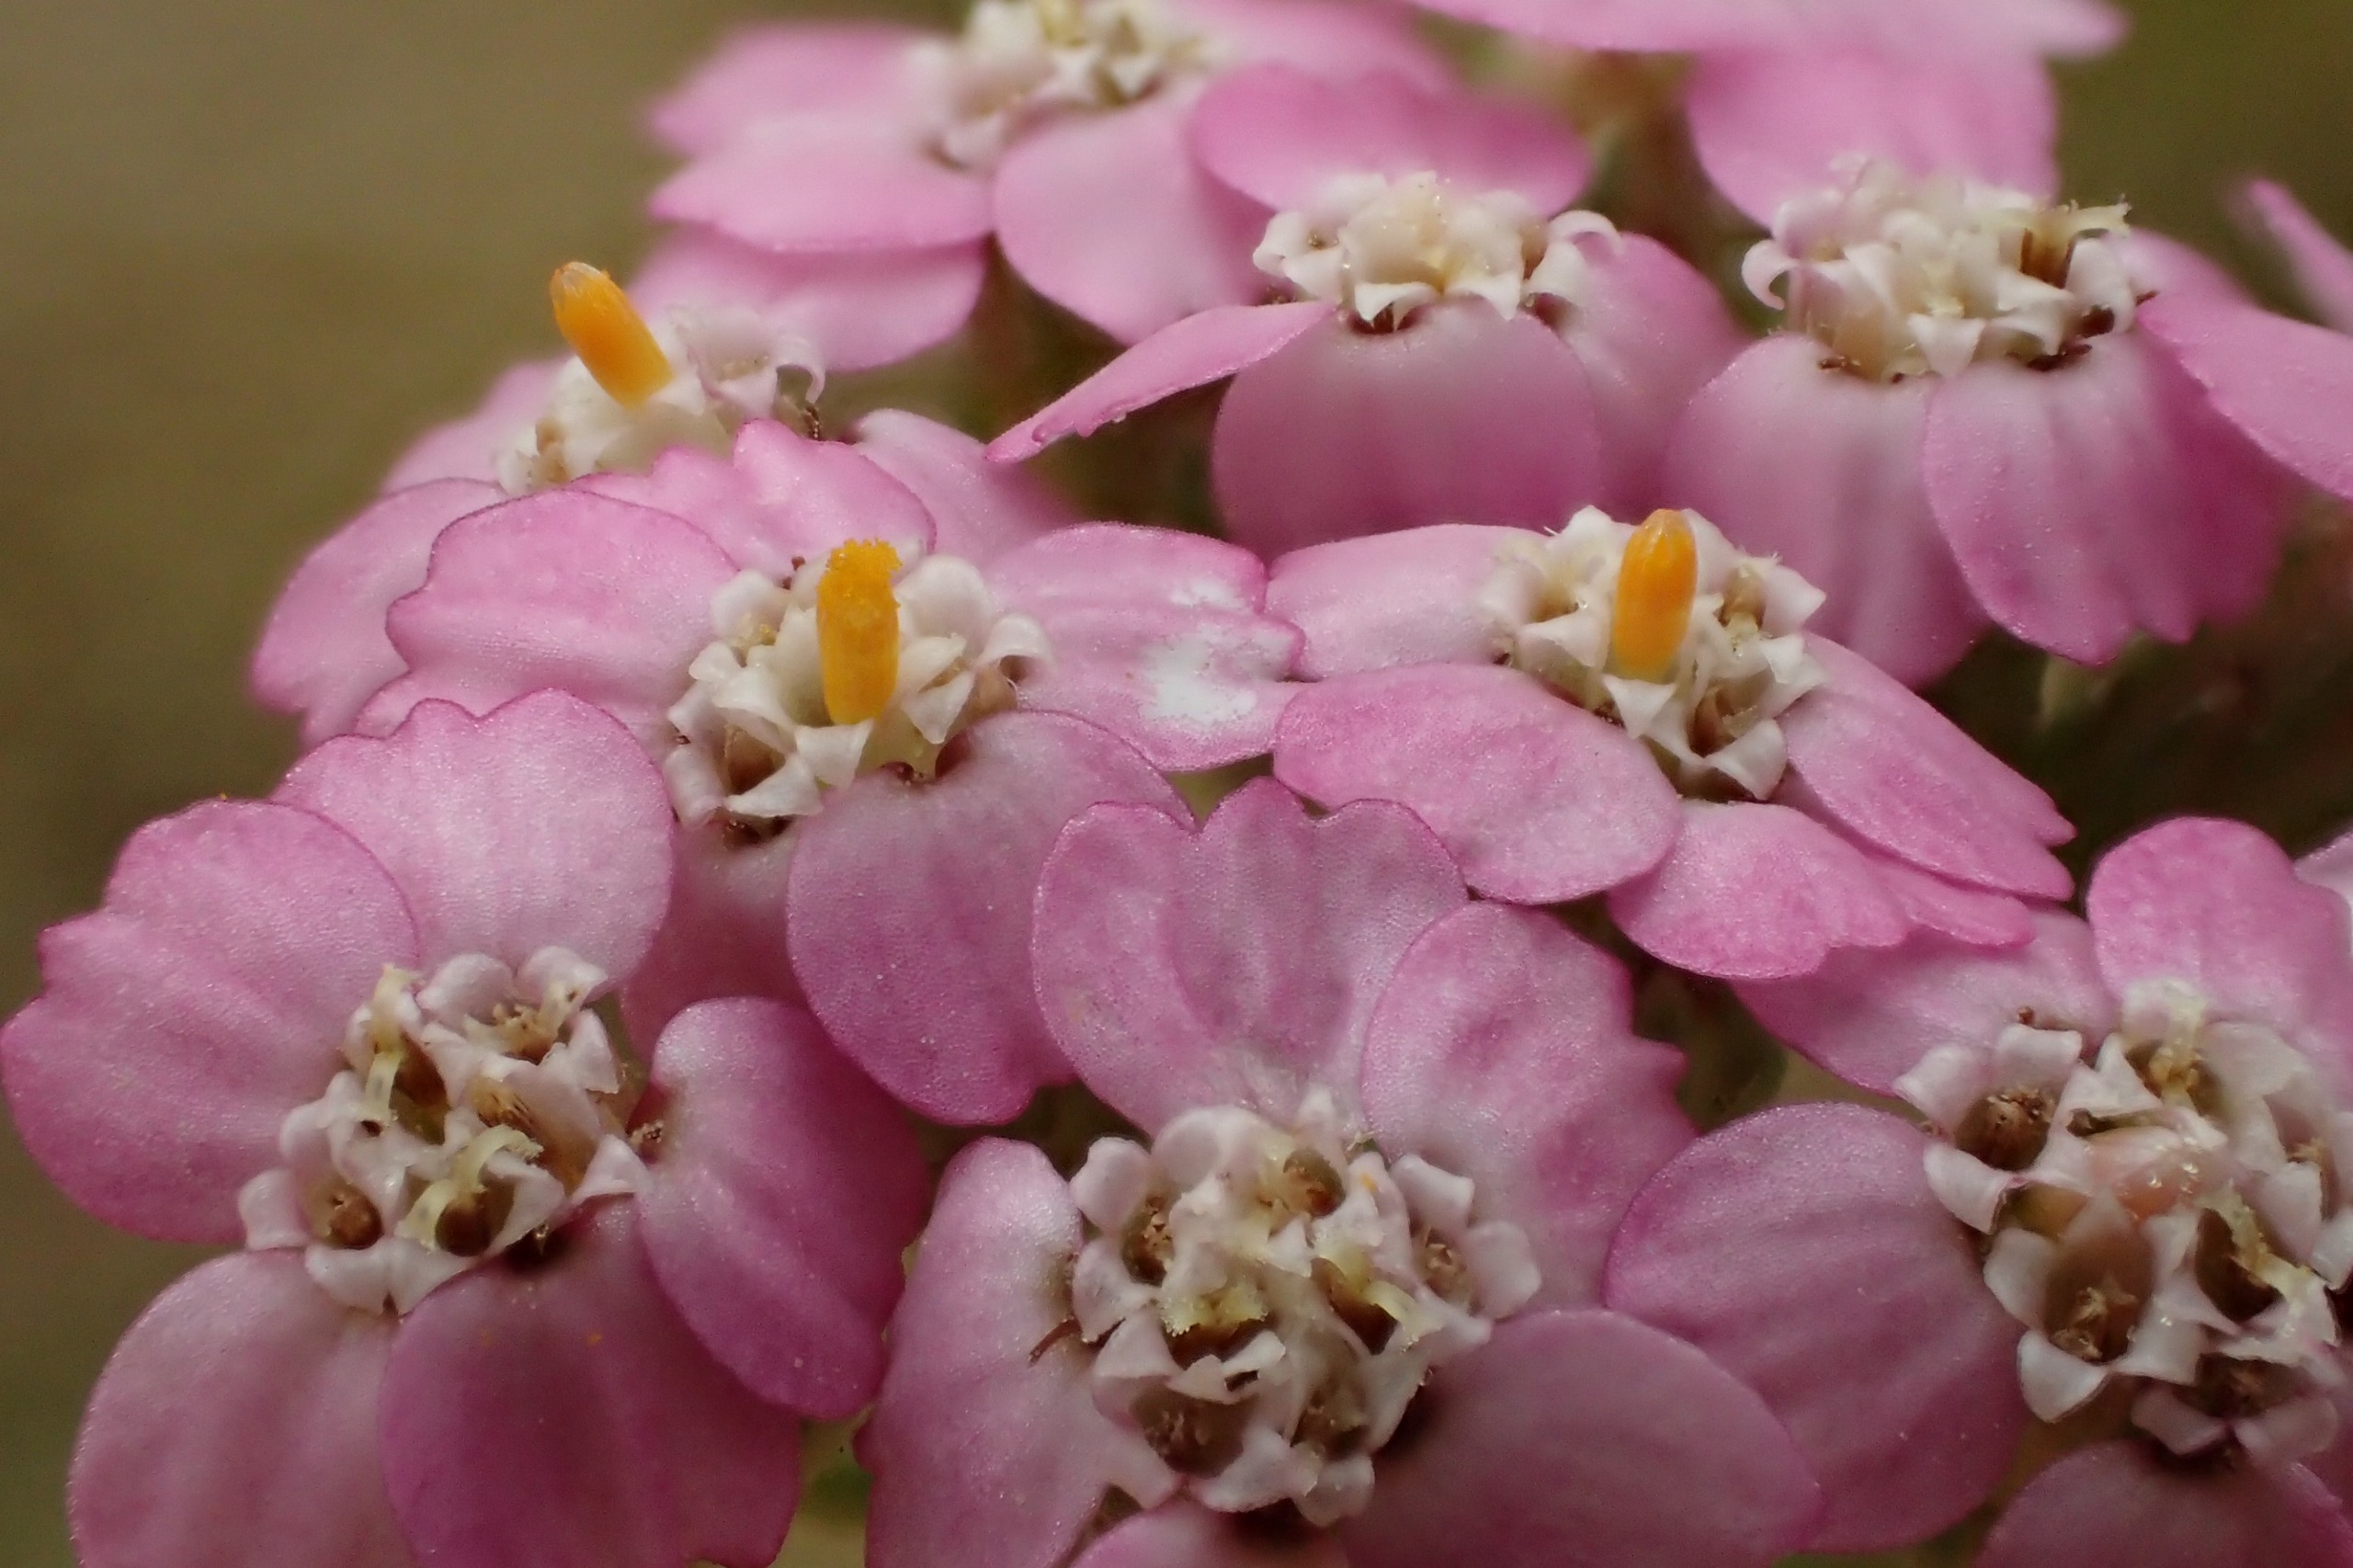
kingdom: Plantae
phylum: Tracheophyta
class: Magnoliopsida
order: Asterales
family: Asteraceae
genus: Achillea
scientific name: Achillea millefolium
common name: Almindelig røllike
